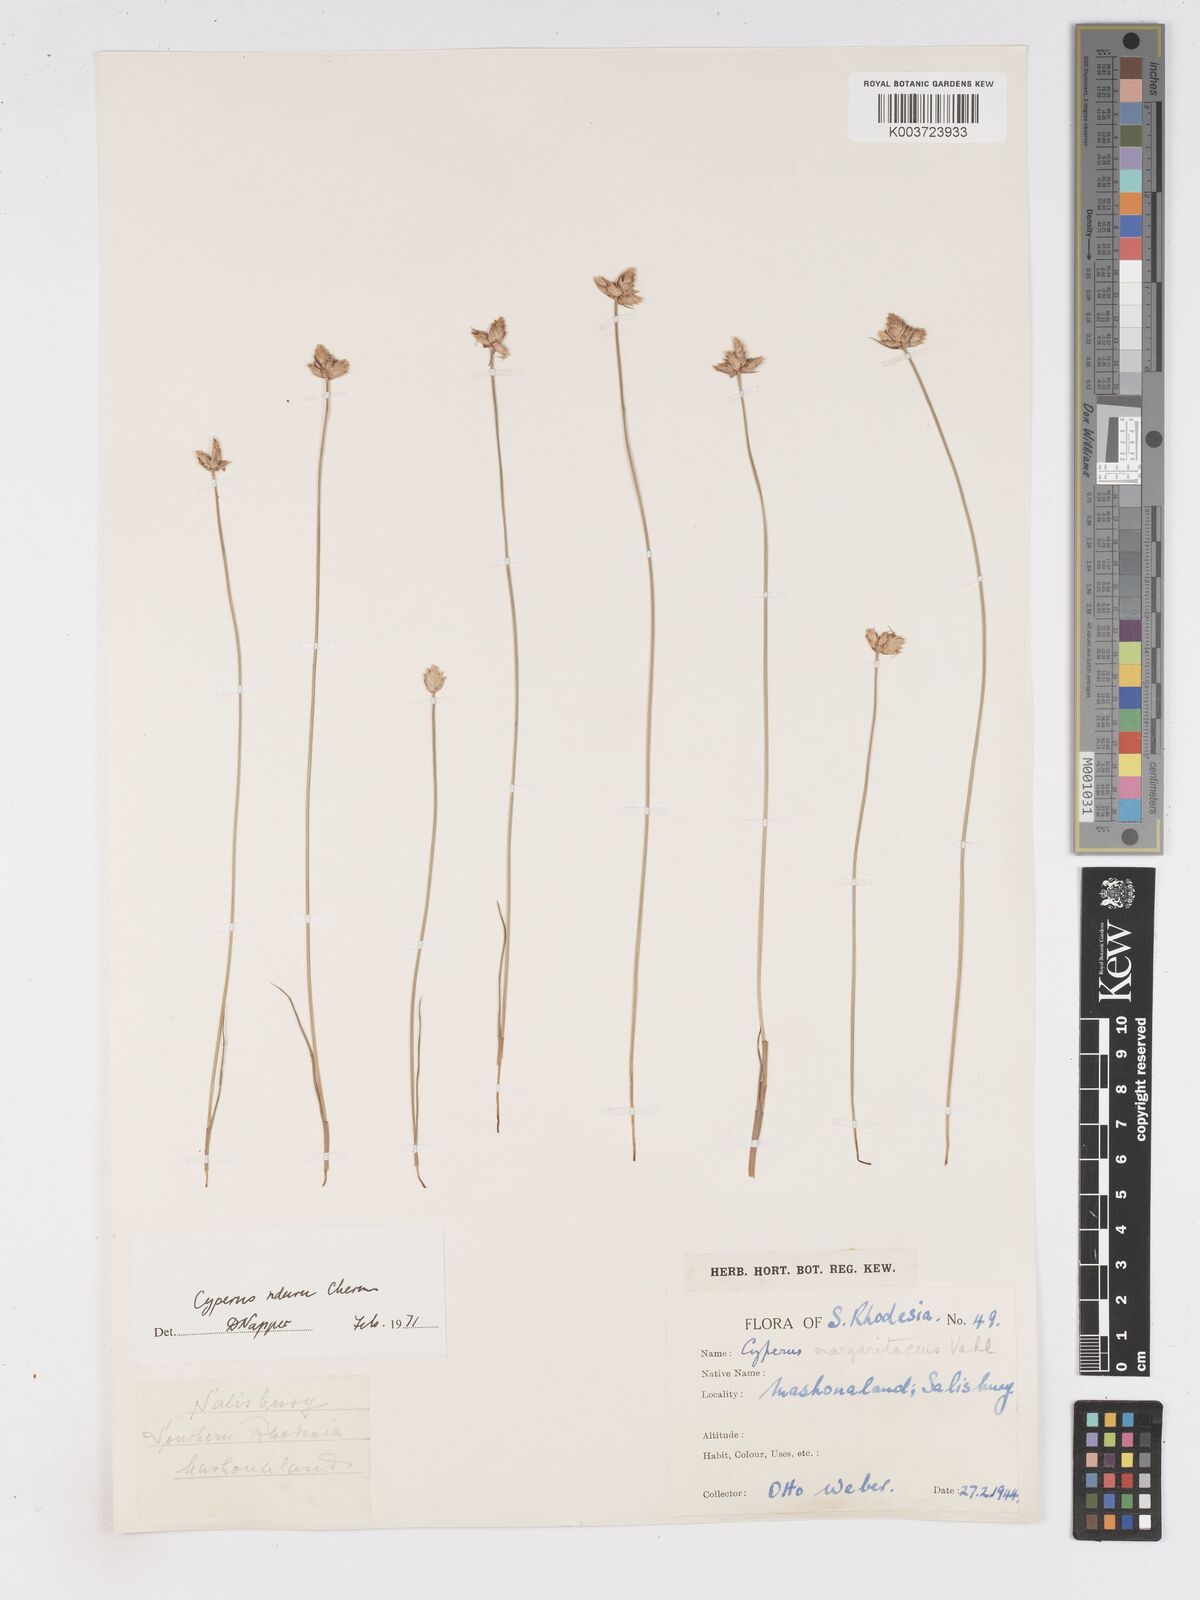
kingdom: Plantae
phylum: Tracheophyta
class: Liliopsida
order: Poales
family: Cyperaceae
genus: Cyperus
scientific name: Cyperus nduru
